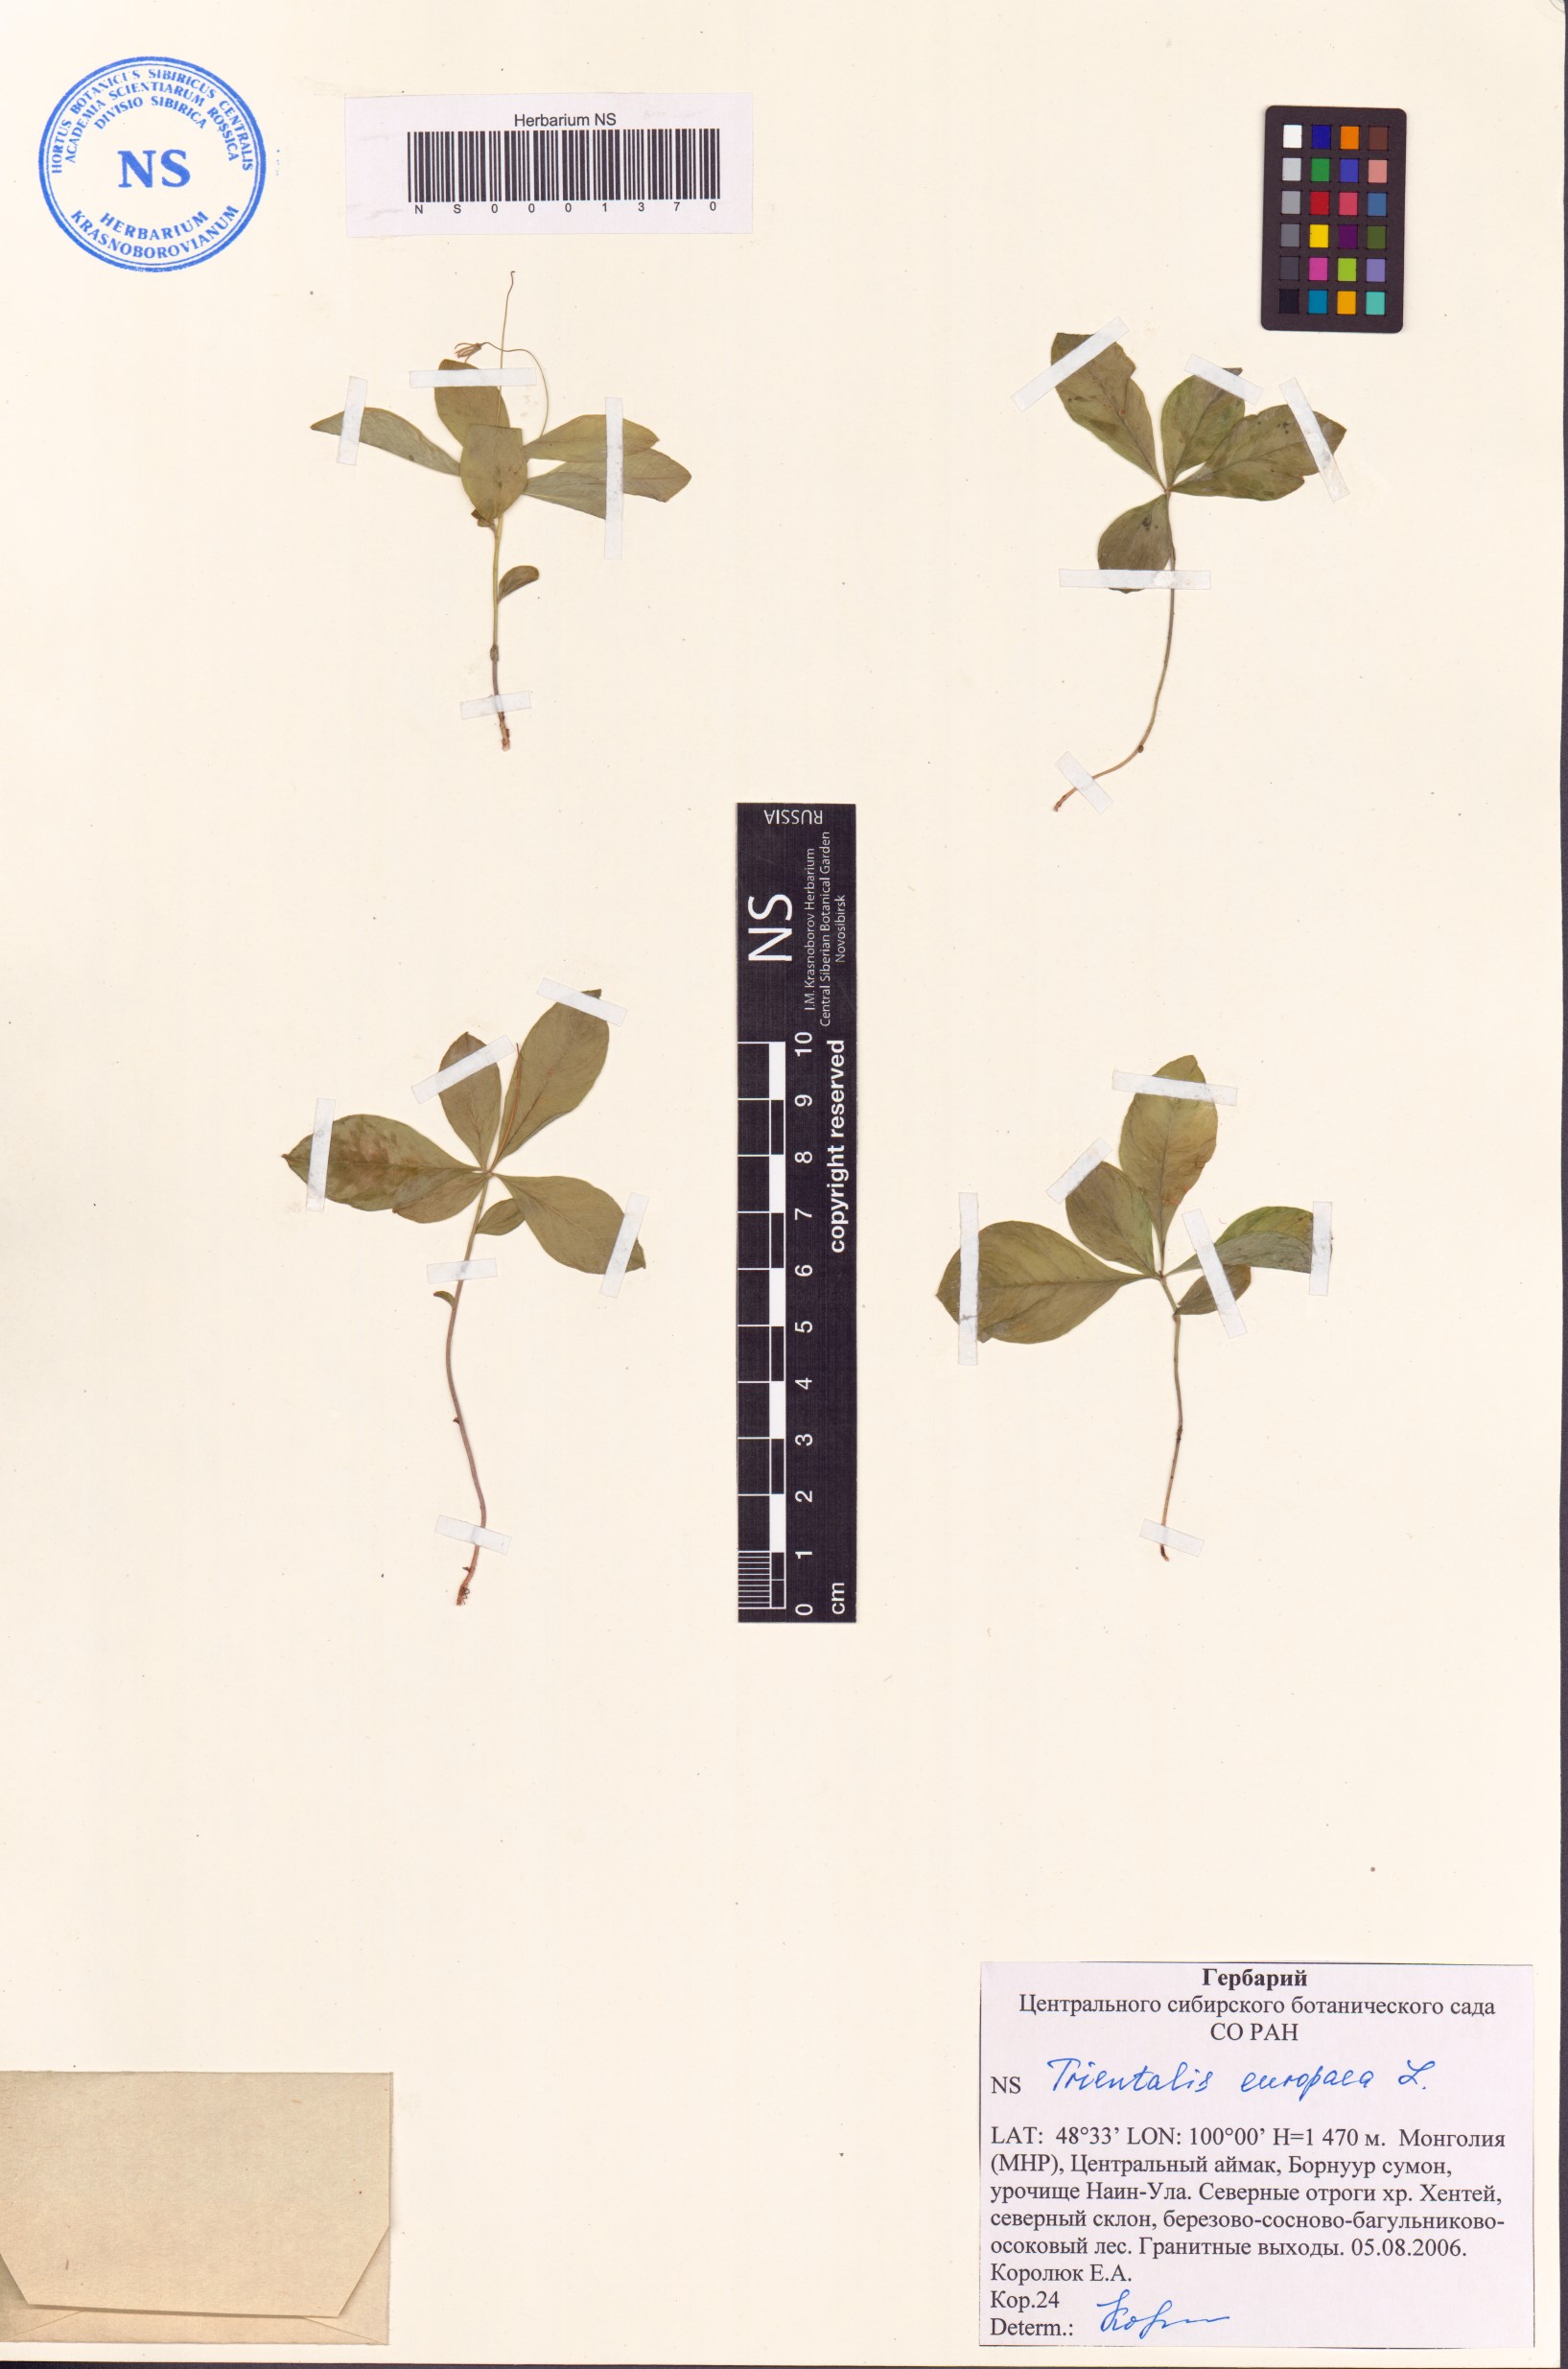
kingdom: Plantae
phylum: Tracheophyta
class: Magnoliopsida
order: Ericales
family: Primulaceae
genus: Lysimachia
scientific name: Lysimachia europaea
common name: Arctic starflower
